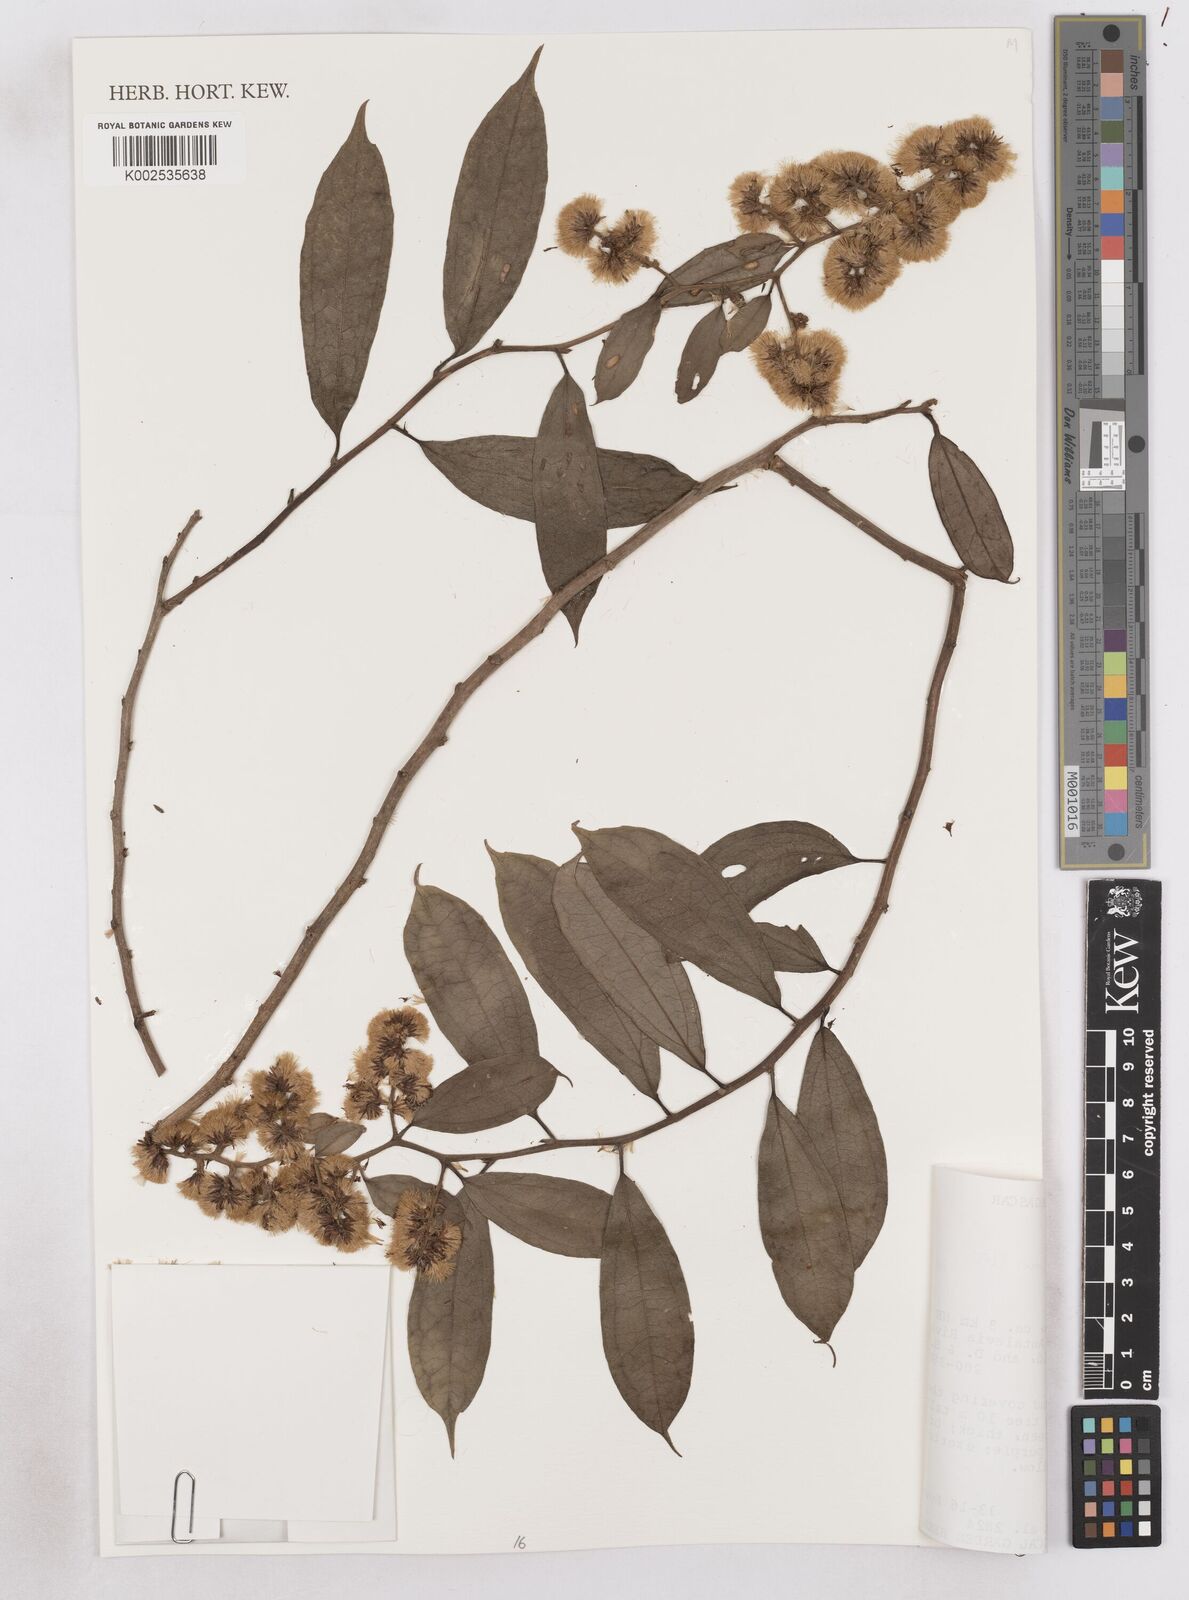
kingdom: Plantae
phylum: Tracheophyta
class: Magnoliopsida
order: Asterales
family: Asteraceae
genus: Distephanus
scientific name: Distephanus spiciformis
